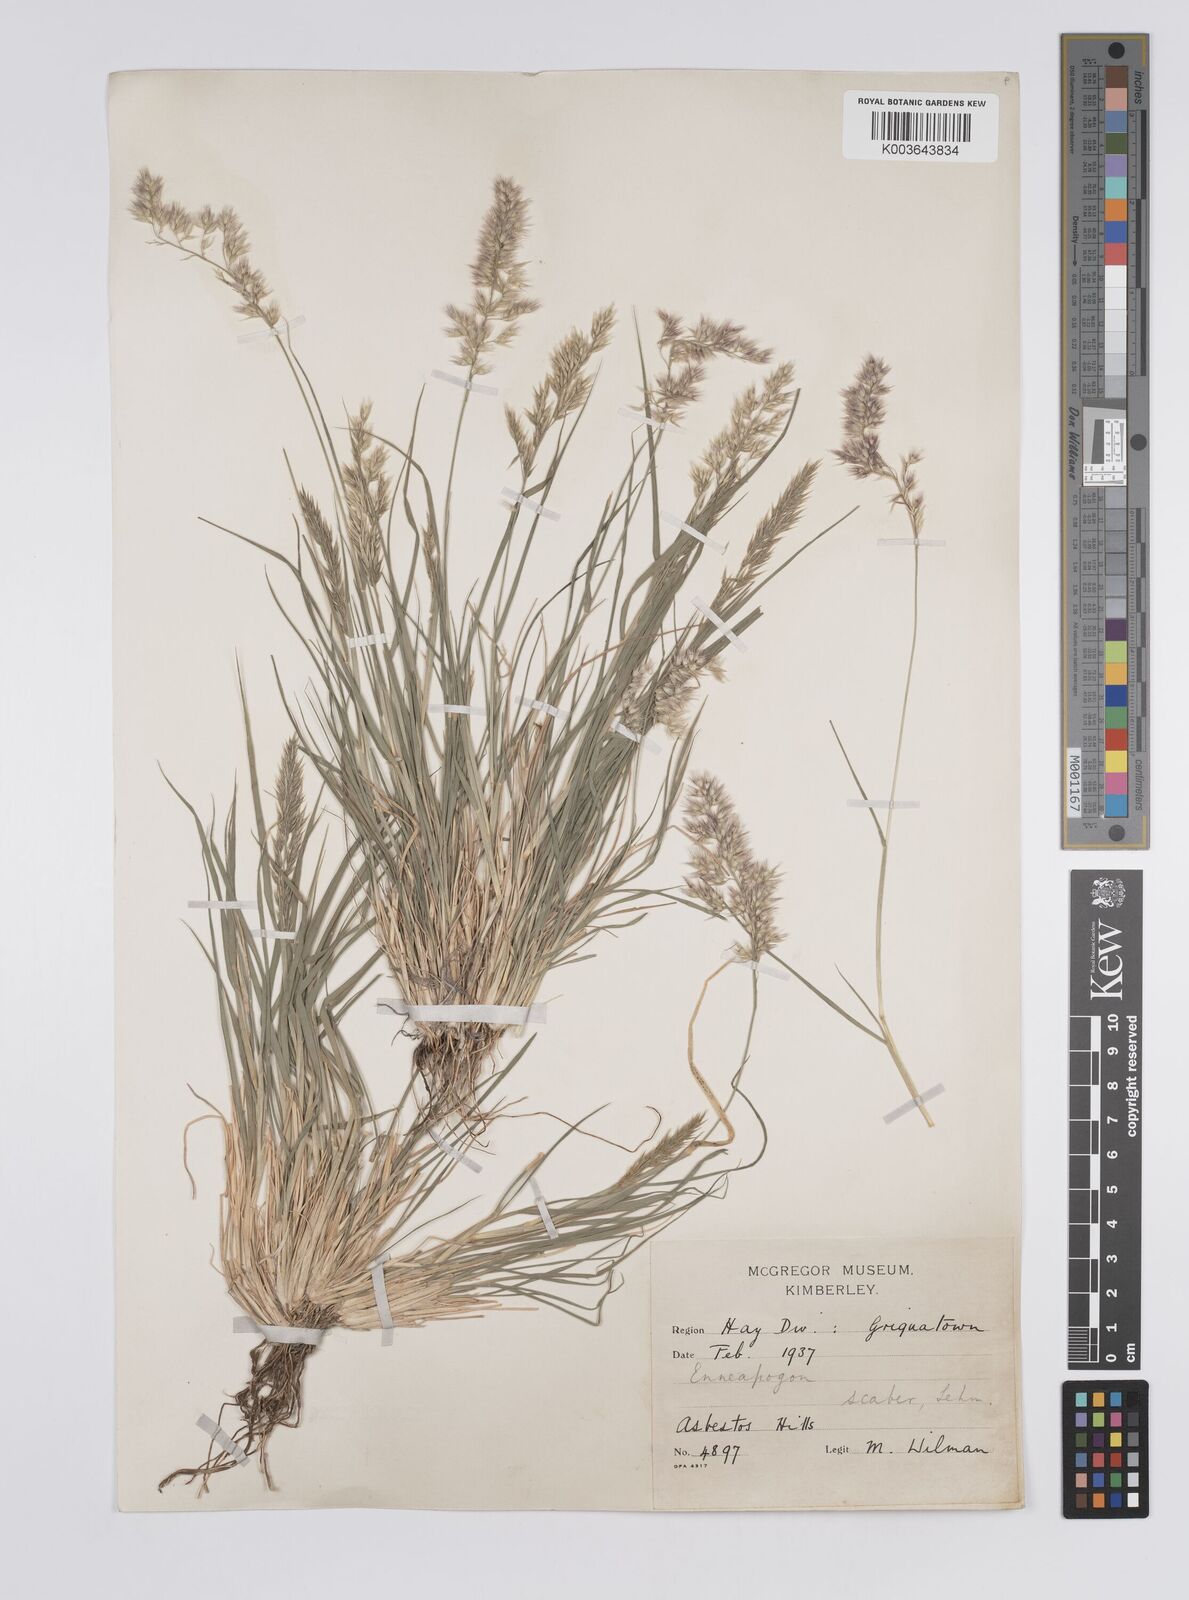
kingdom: Plantae
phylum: Tracheophyta
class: Liliopsida
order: Poales
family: Poaceae
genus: Enneapogon
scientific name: Enneapogon scaber
